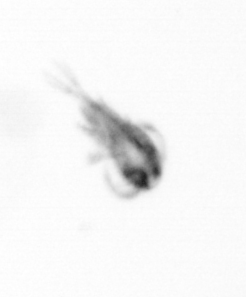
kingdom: Animalia
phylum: Arthropoda
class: Copepoda
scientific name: Copepoda
